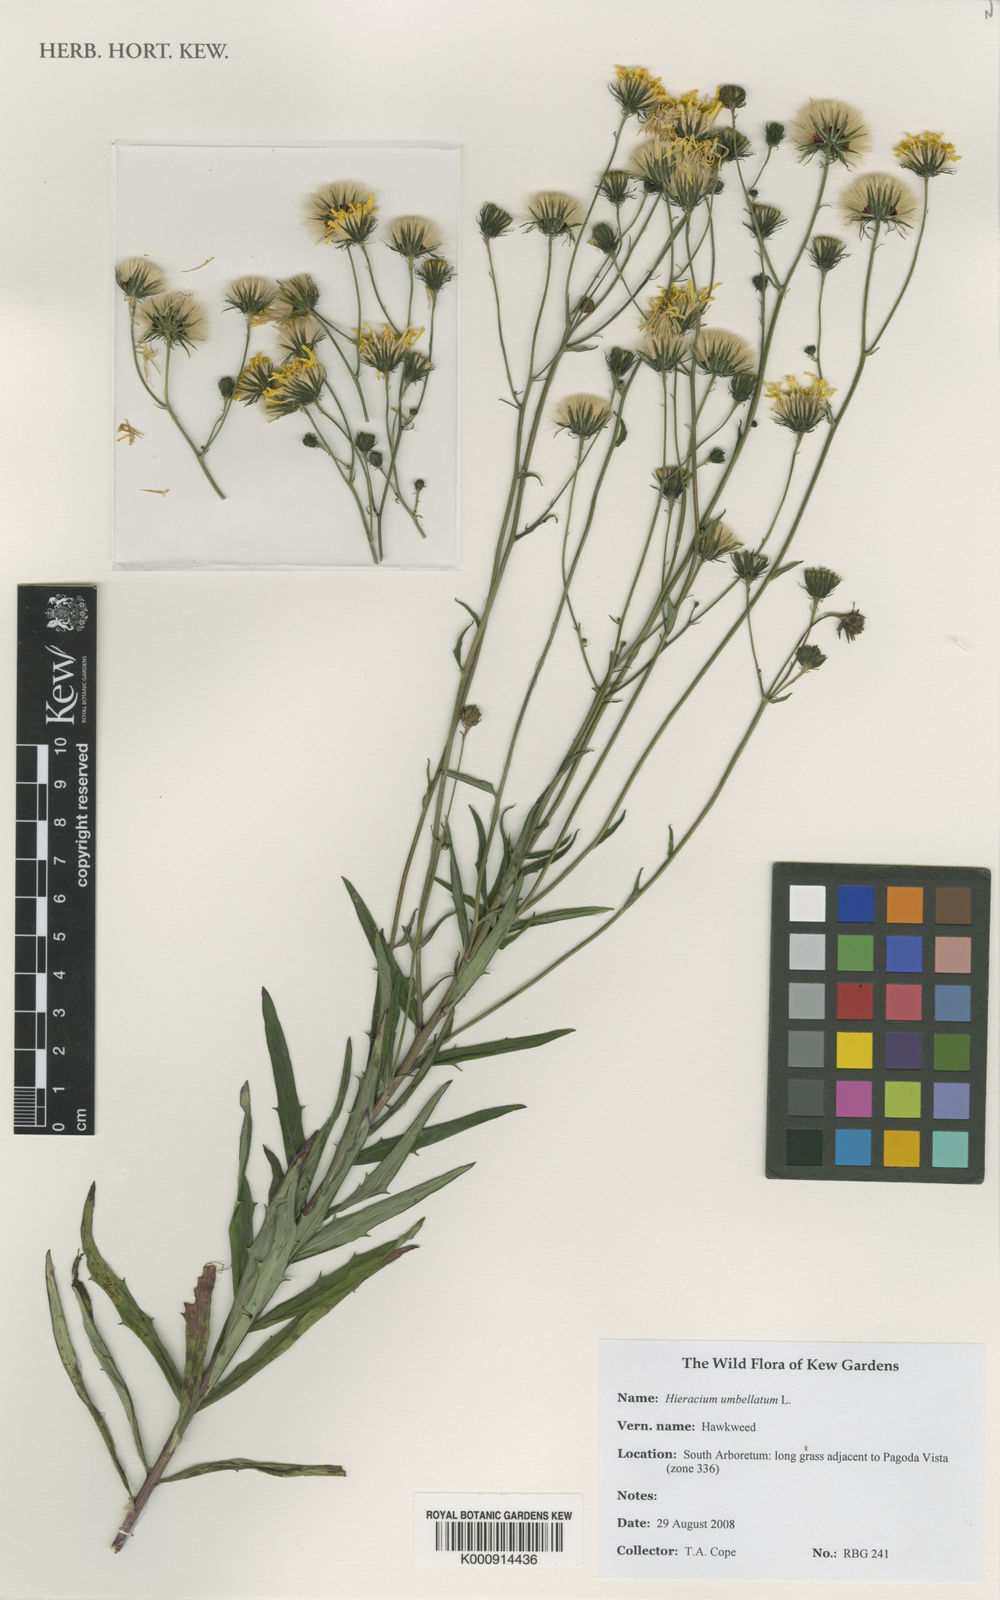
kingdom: Plantae
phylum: Tracheophyta
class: Magnoliopsida
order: Asterales
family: Asteraceae
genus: Hieracium
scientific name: Hieracium umbellatum
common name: Northern hawkweed
